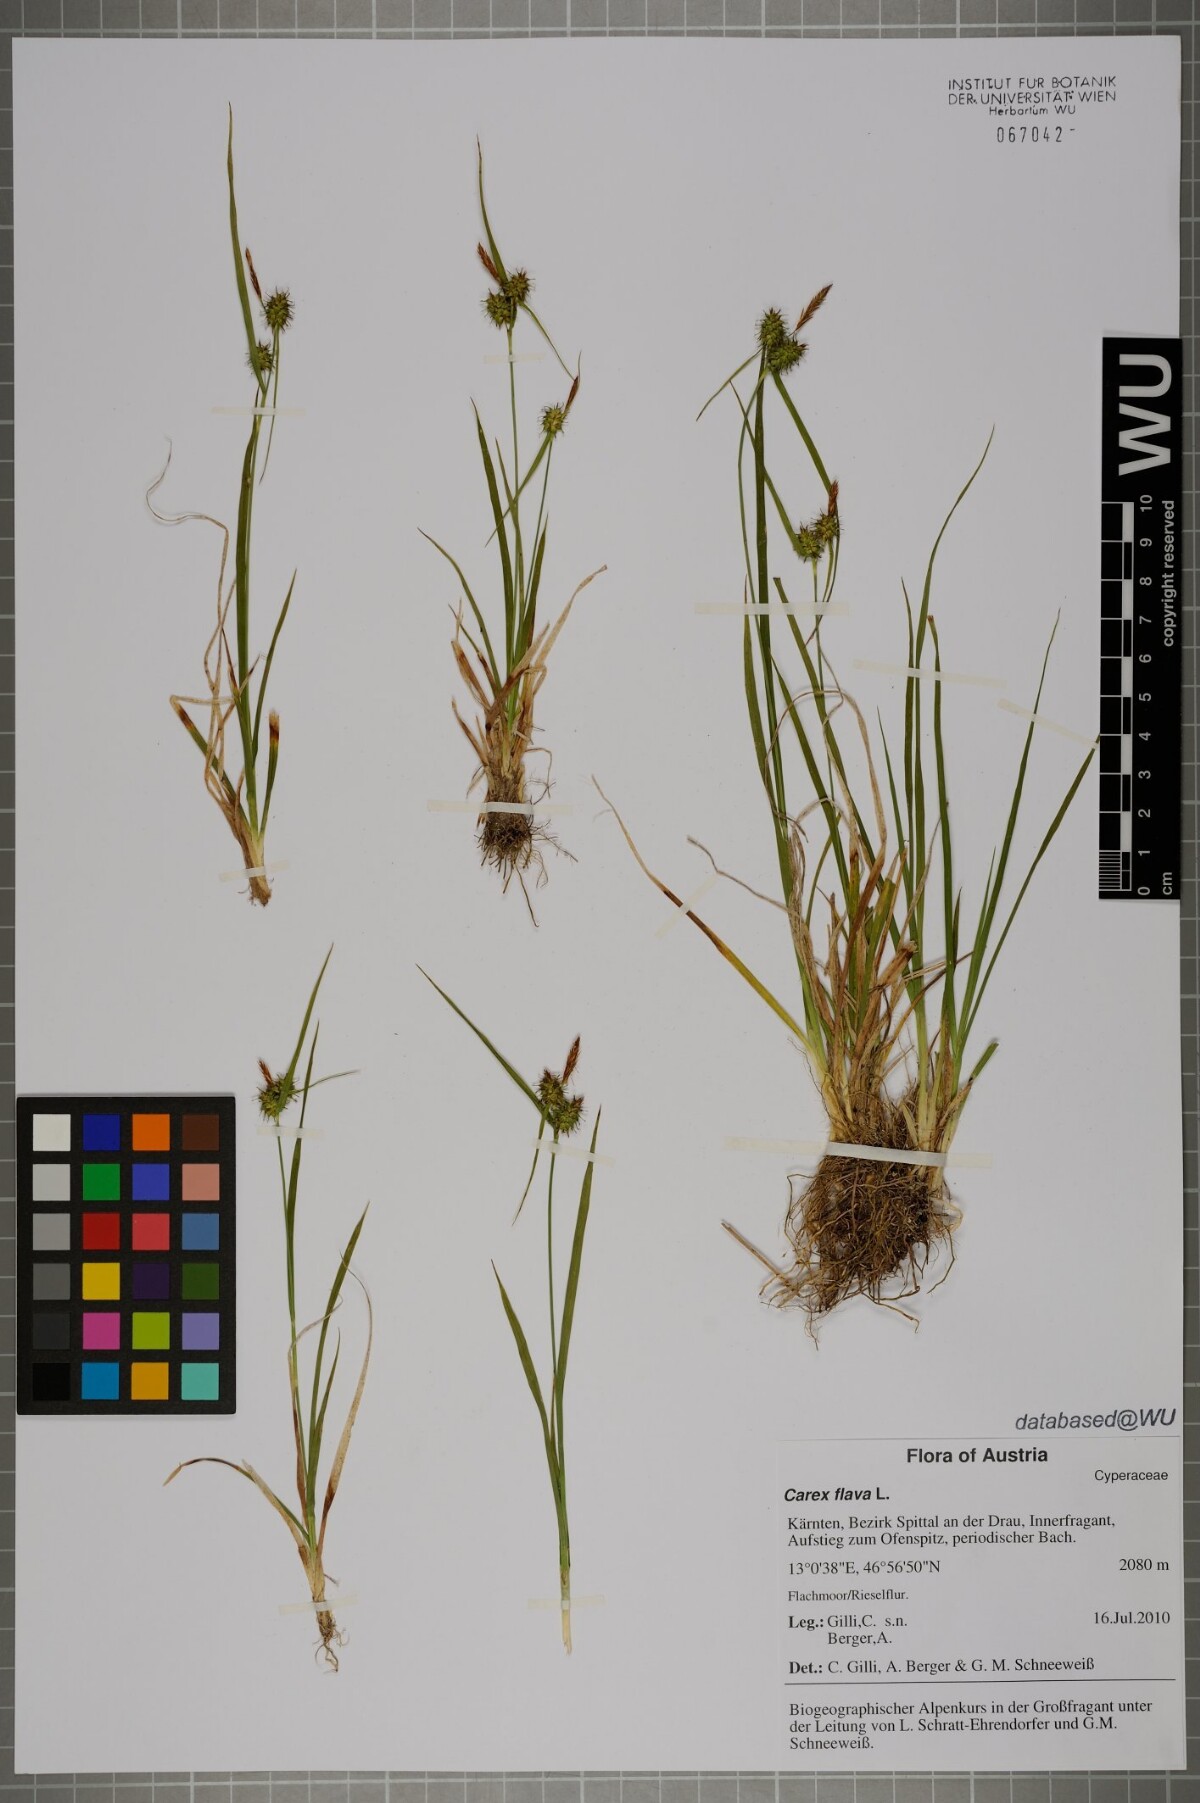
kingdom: Plantae
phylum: Tracheophyta
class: Liliopsida
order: Poales
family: Cyperaceae
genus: Carex
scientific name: Carex flava
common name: Large yellow-sedge
